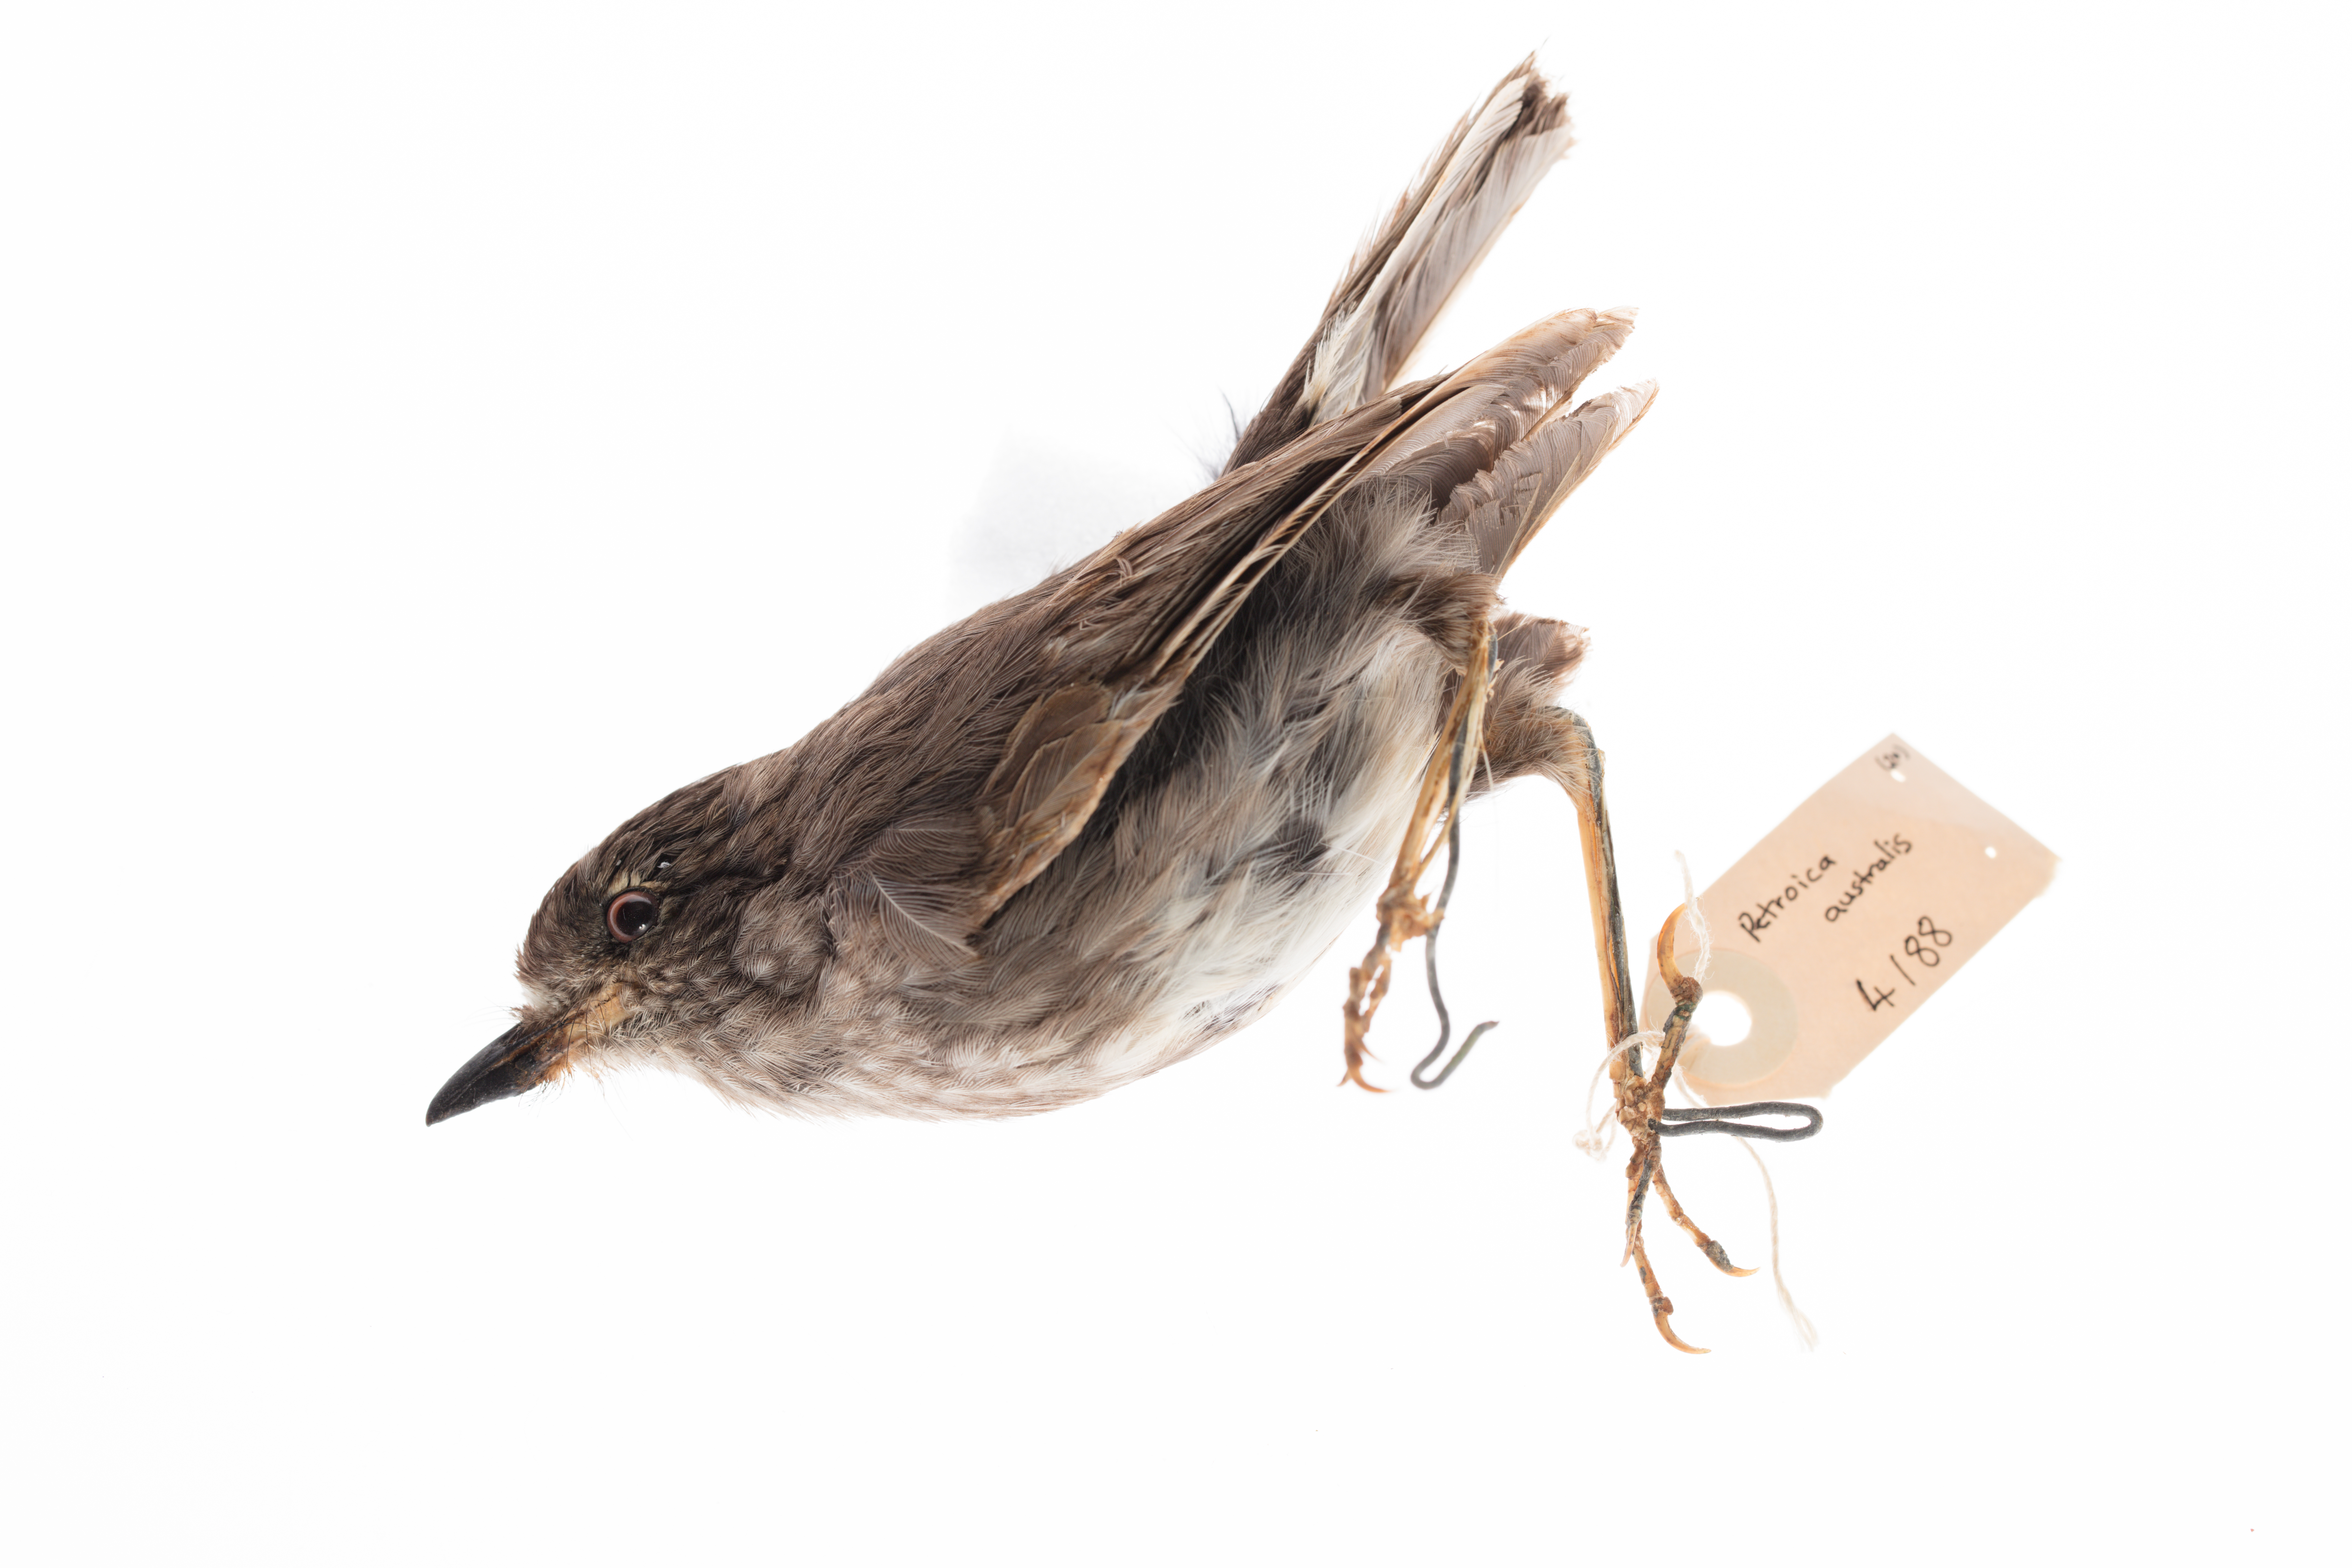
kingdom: Animalia
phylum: Chordata
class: Aves
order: Passeriformes
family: Petroicidae
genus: Petroica
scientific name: Petroica
